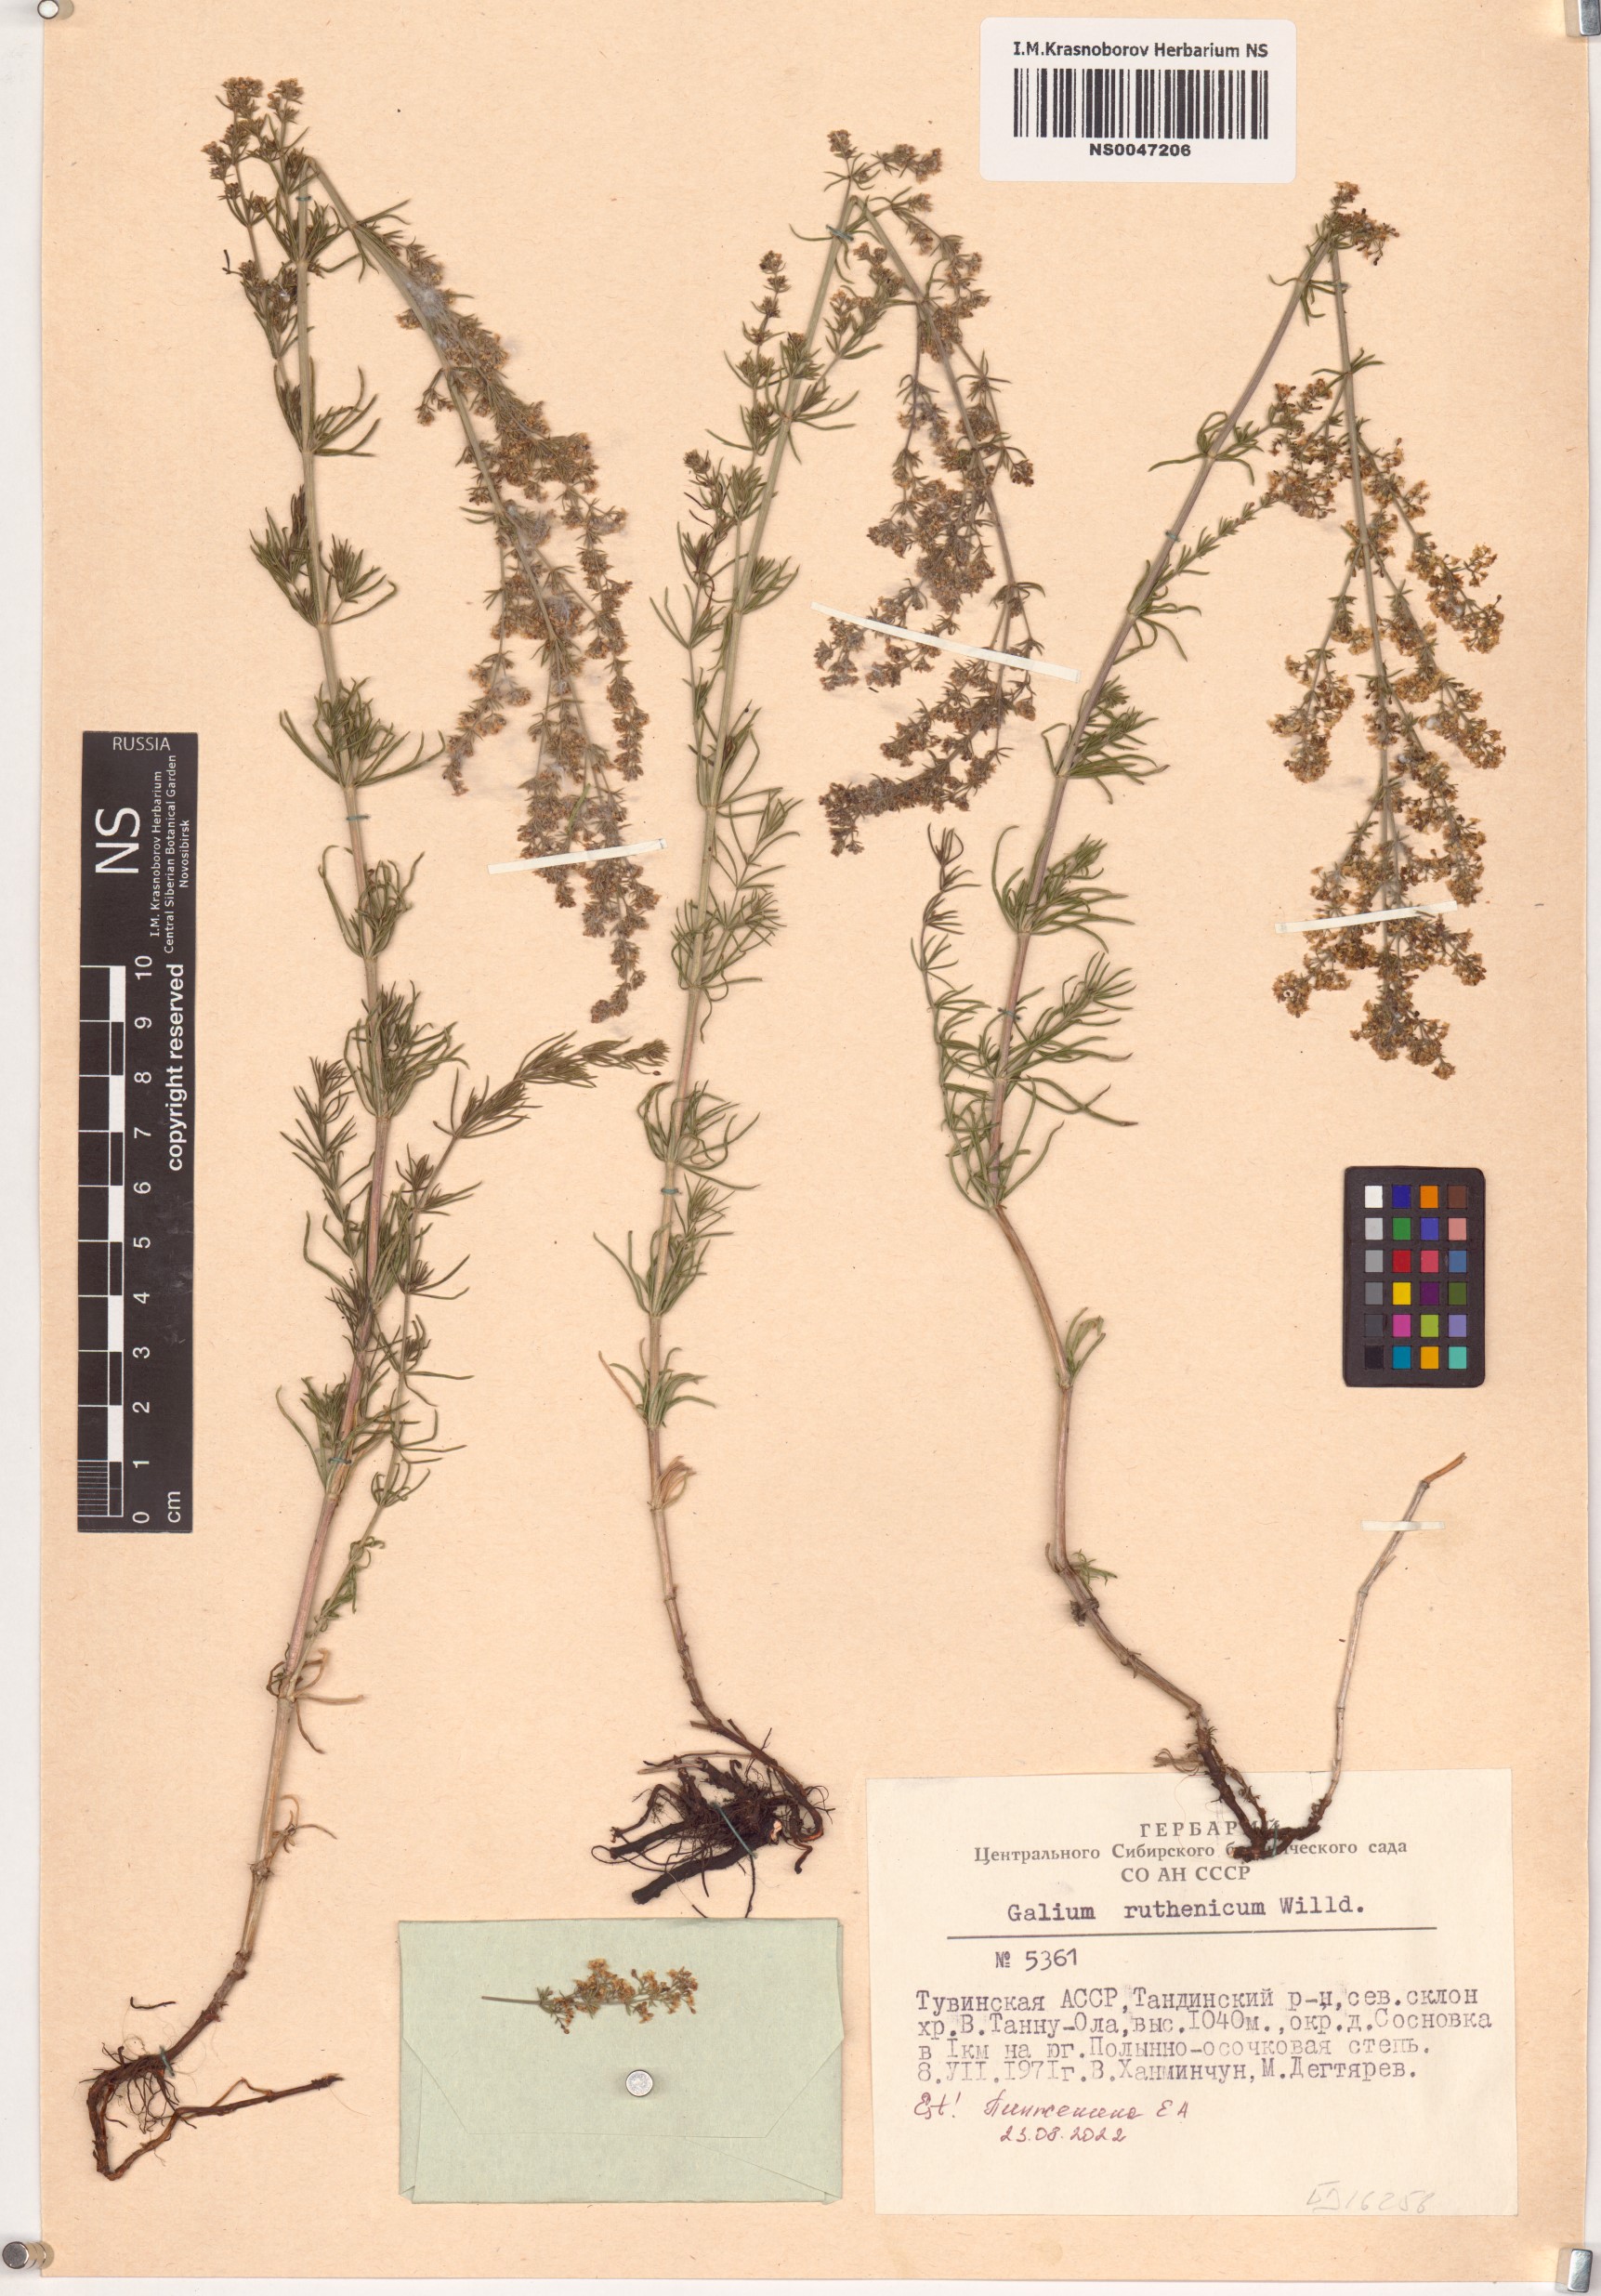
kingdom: Plantae
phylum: Tracheophyta
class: Magnoliopsida
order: Gentianales
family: Rubiaceae
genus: Galium
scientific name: Galium verum
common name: Lady's bedstraw
